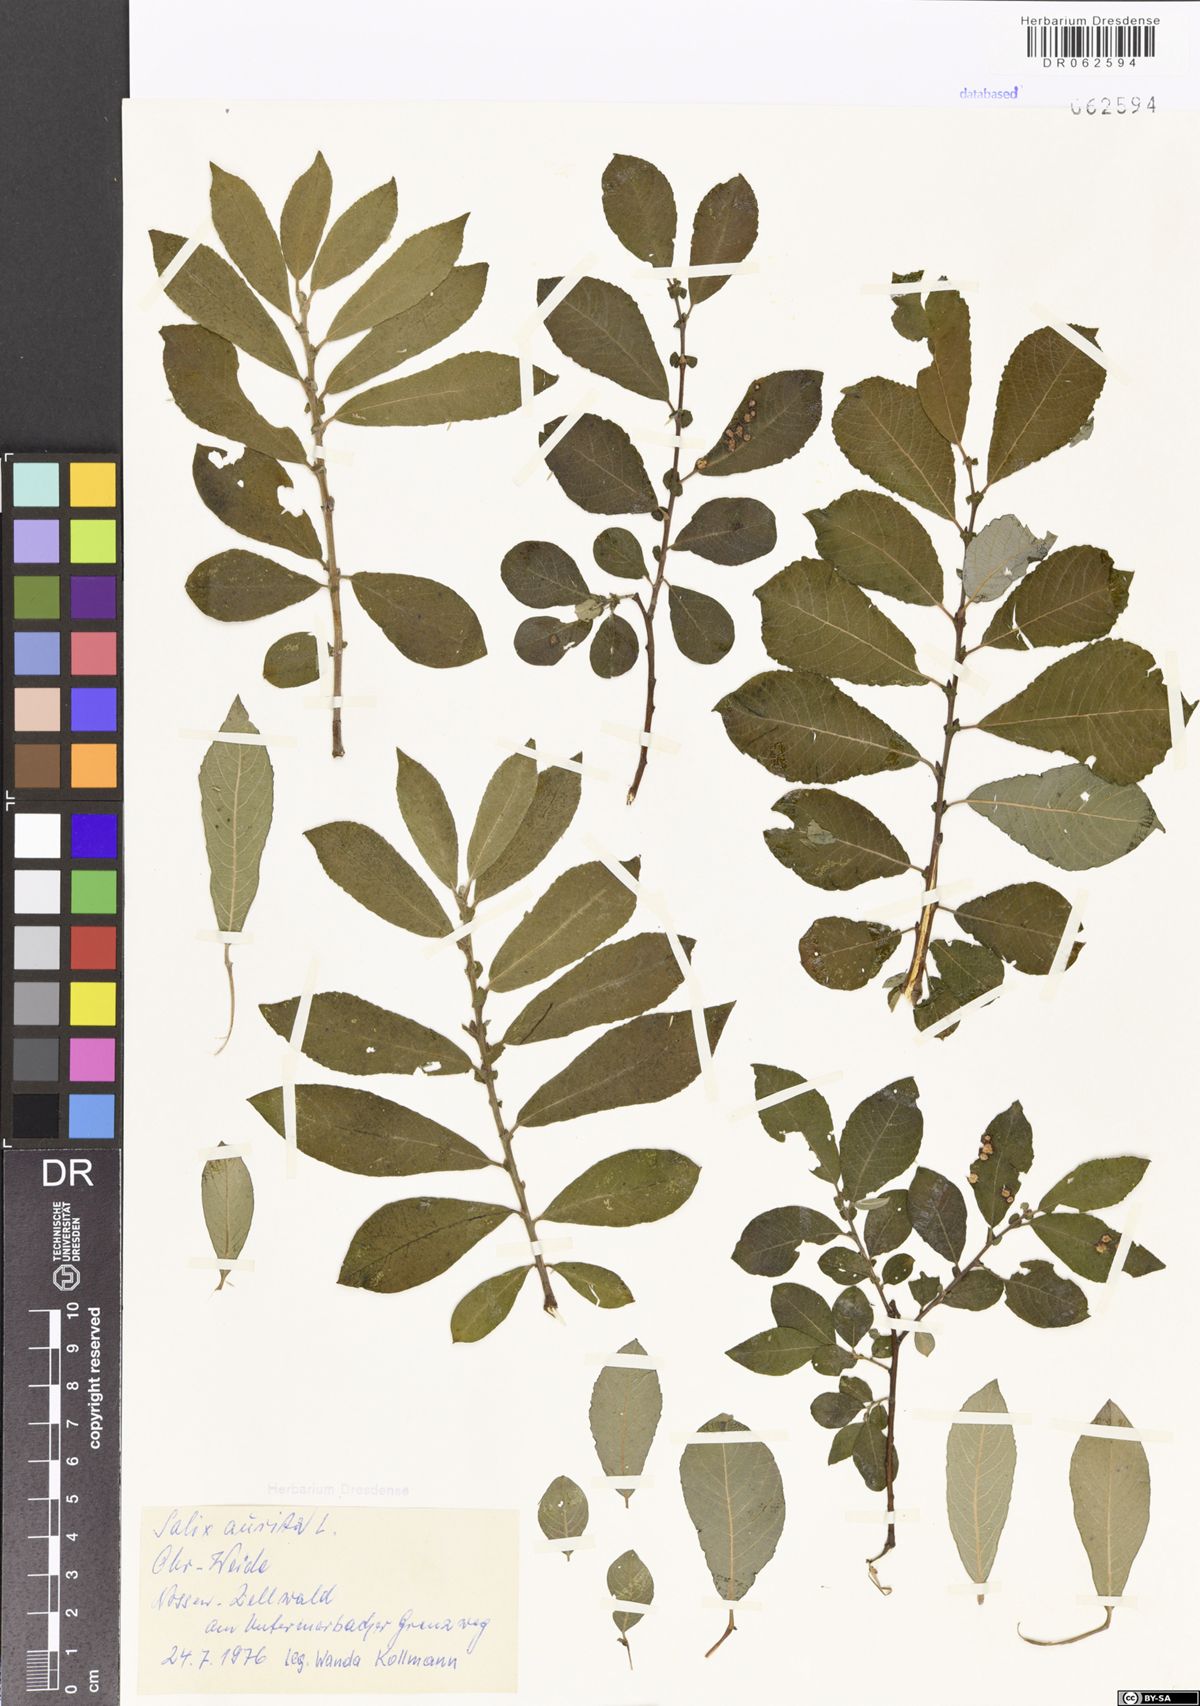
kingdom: Plantae
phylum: Tracheophyta
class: Magnoliopsida
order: Malpighiales
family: Salicaceae
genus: Salix
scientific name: Salix aurita
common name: Eared willow
